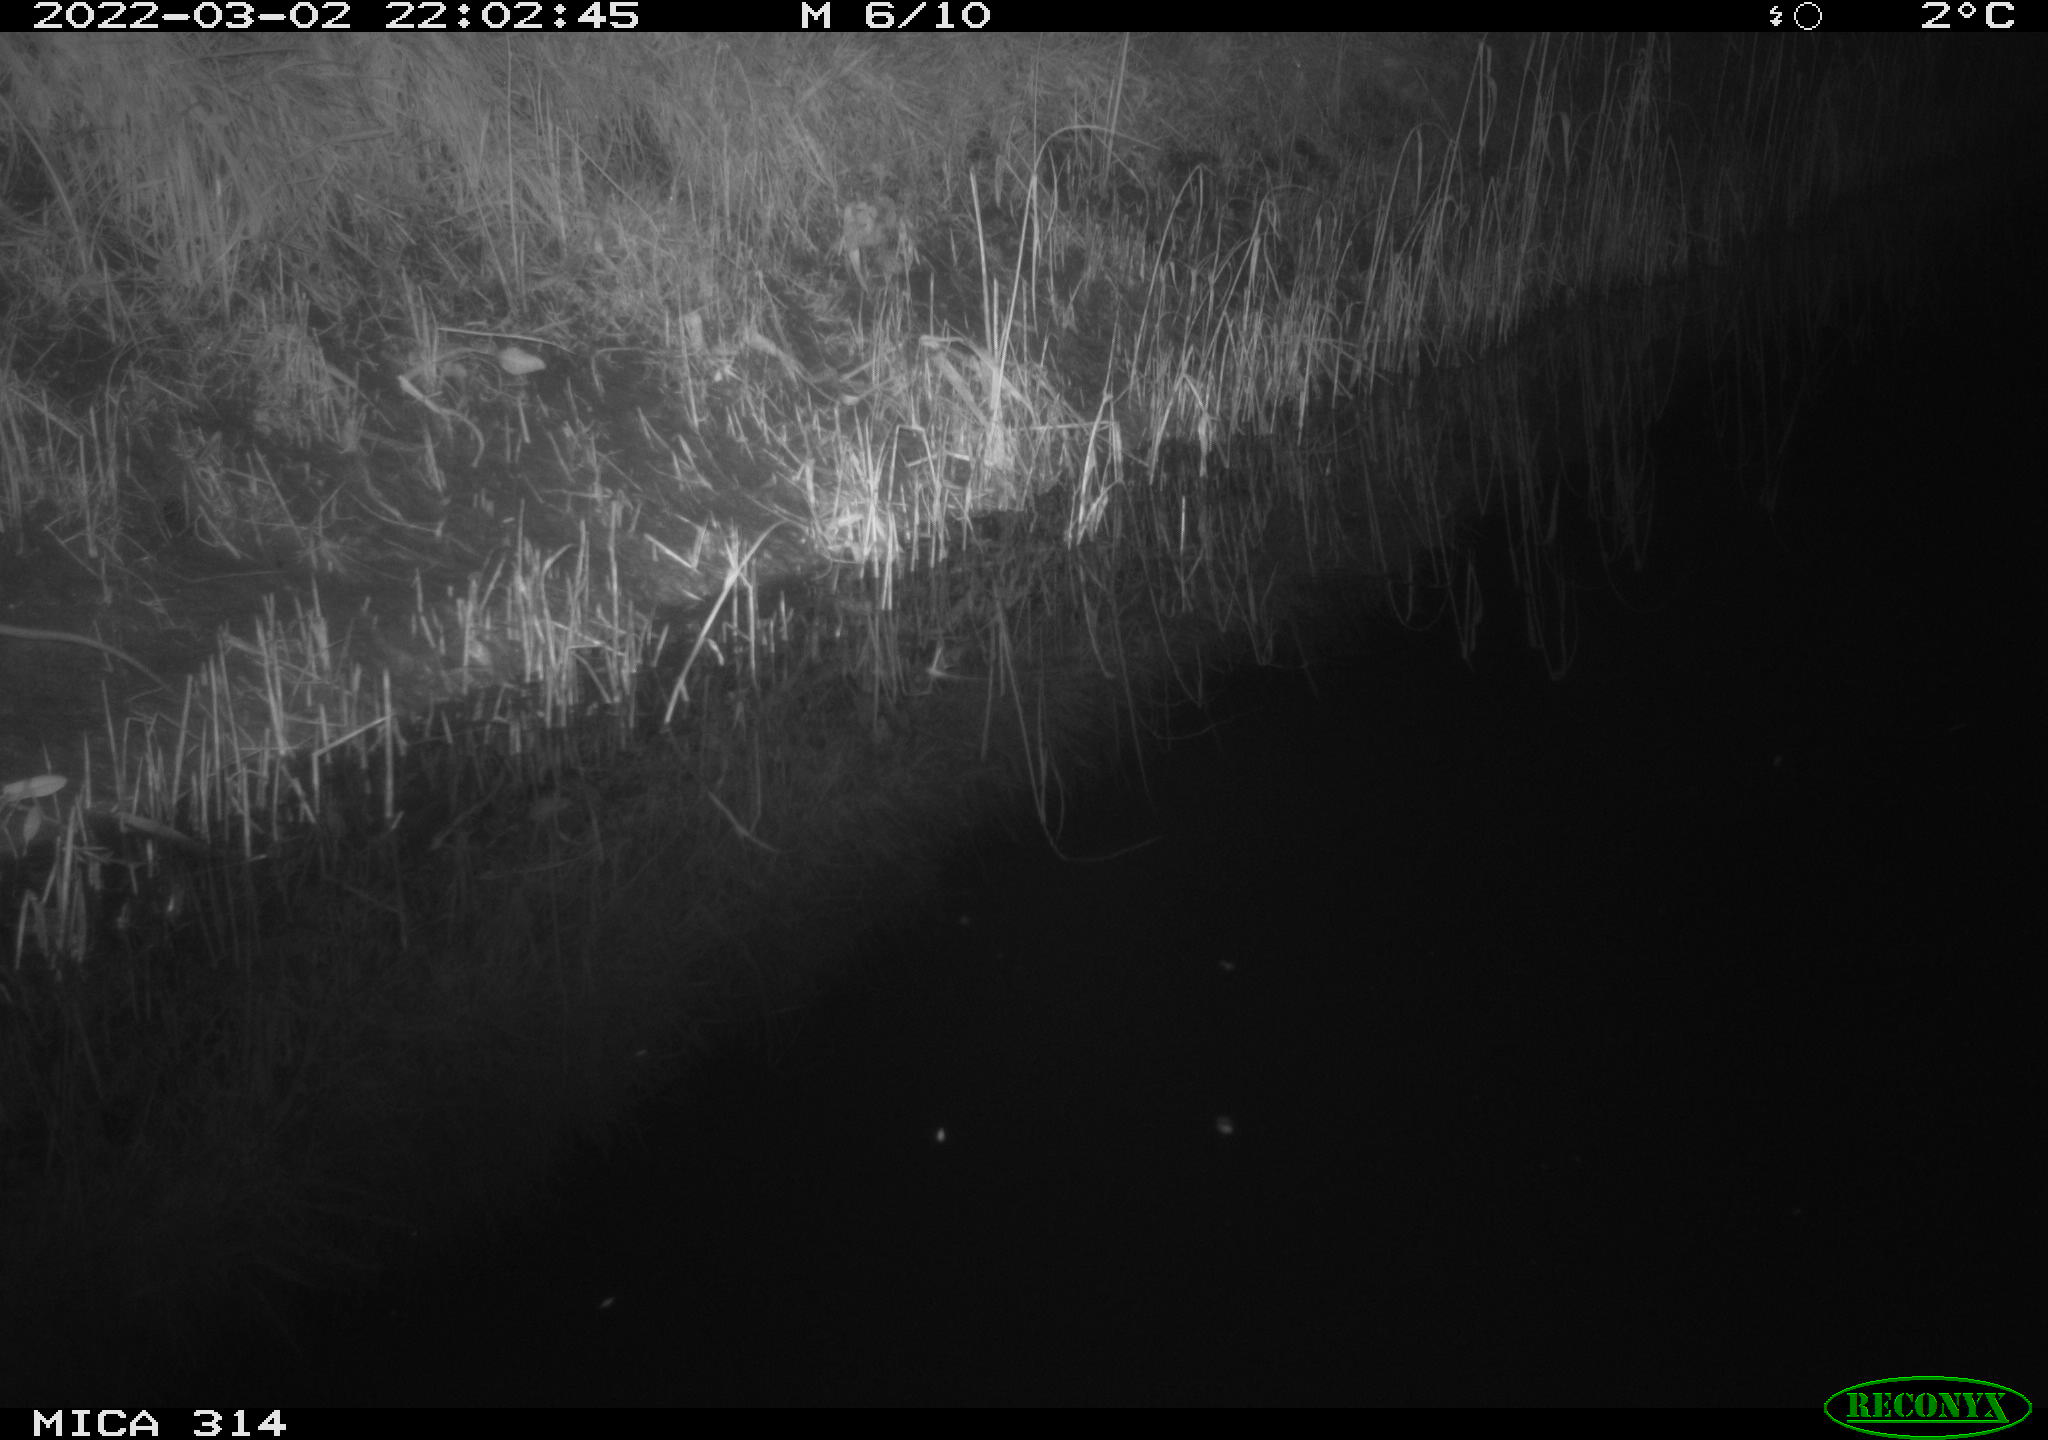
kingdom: Animalia
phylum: Chordata
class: Mammalia
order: Rodentia
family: Muridae
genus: Rattus
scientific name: Rattus norvegicus
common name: Brown rat
